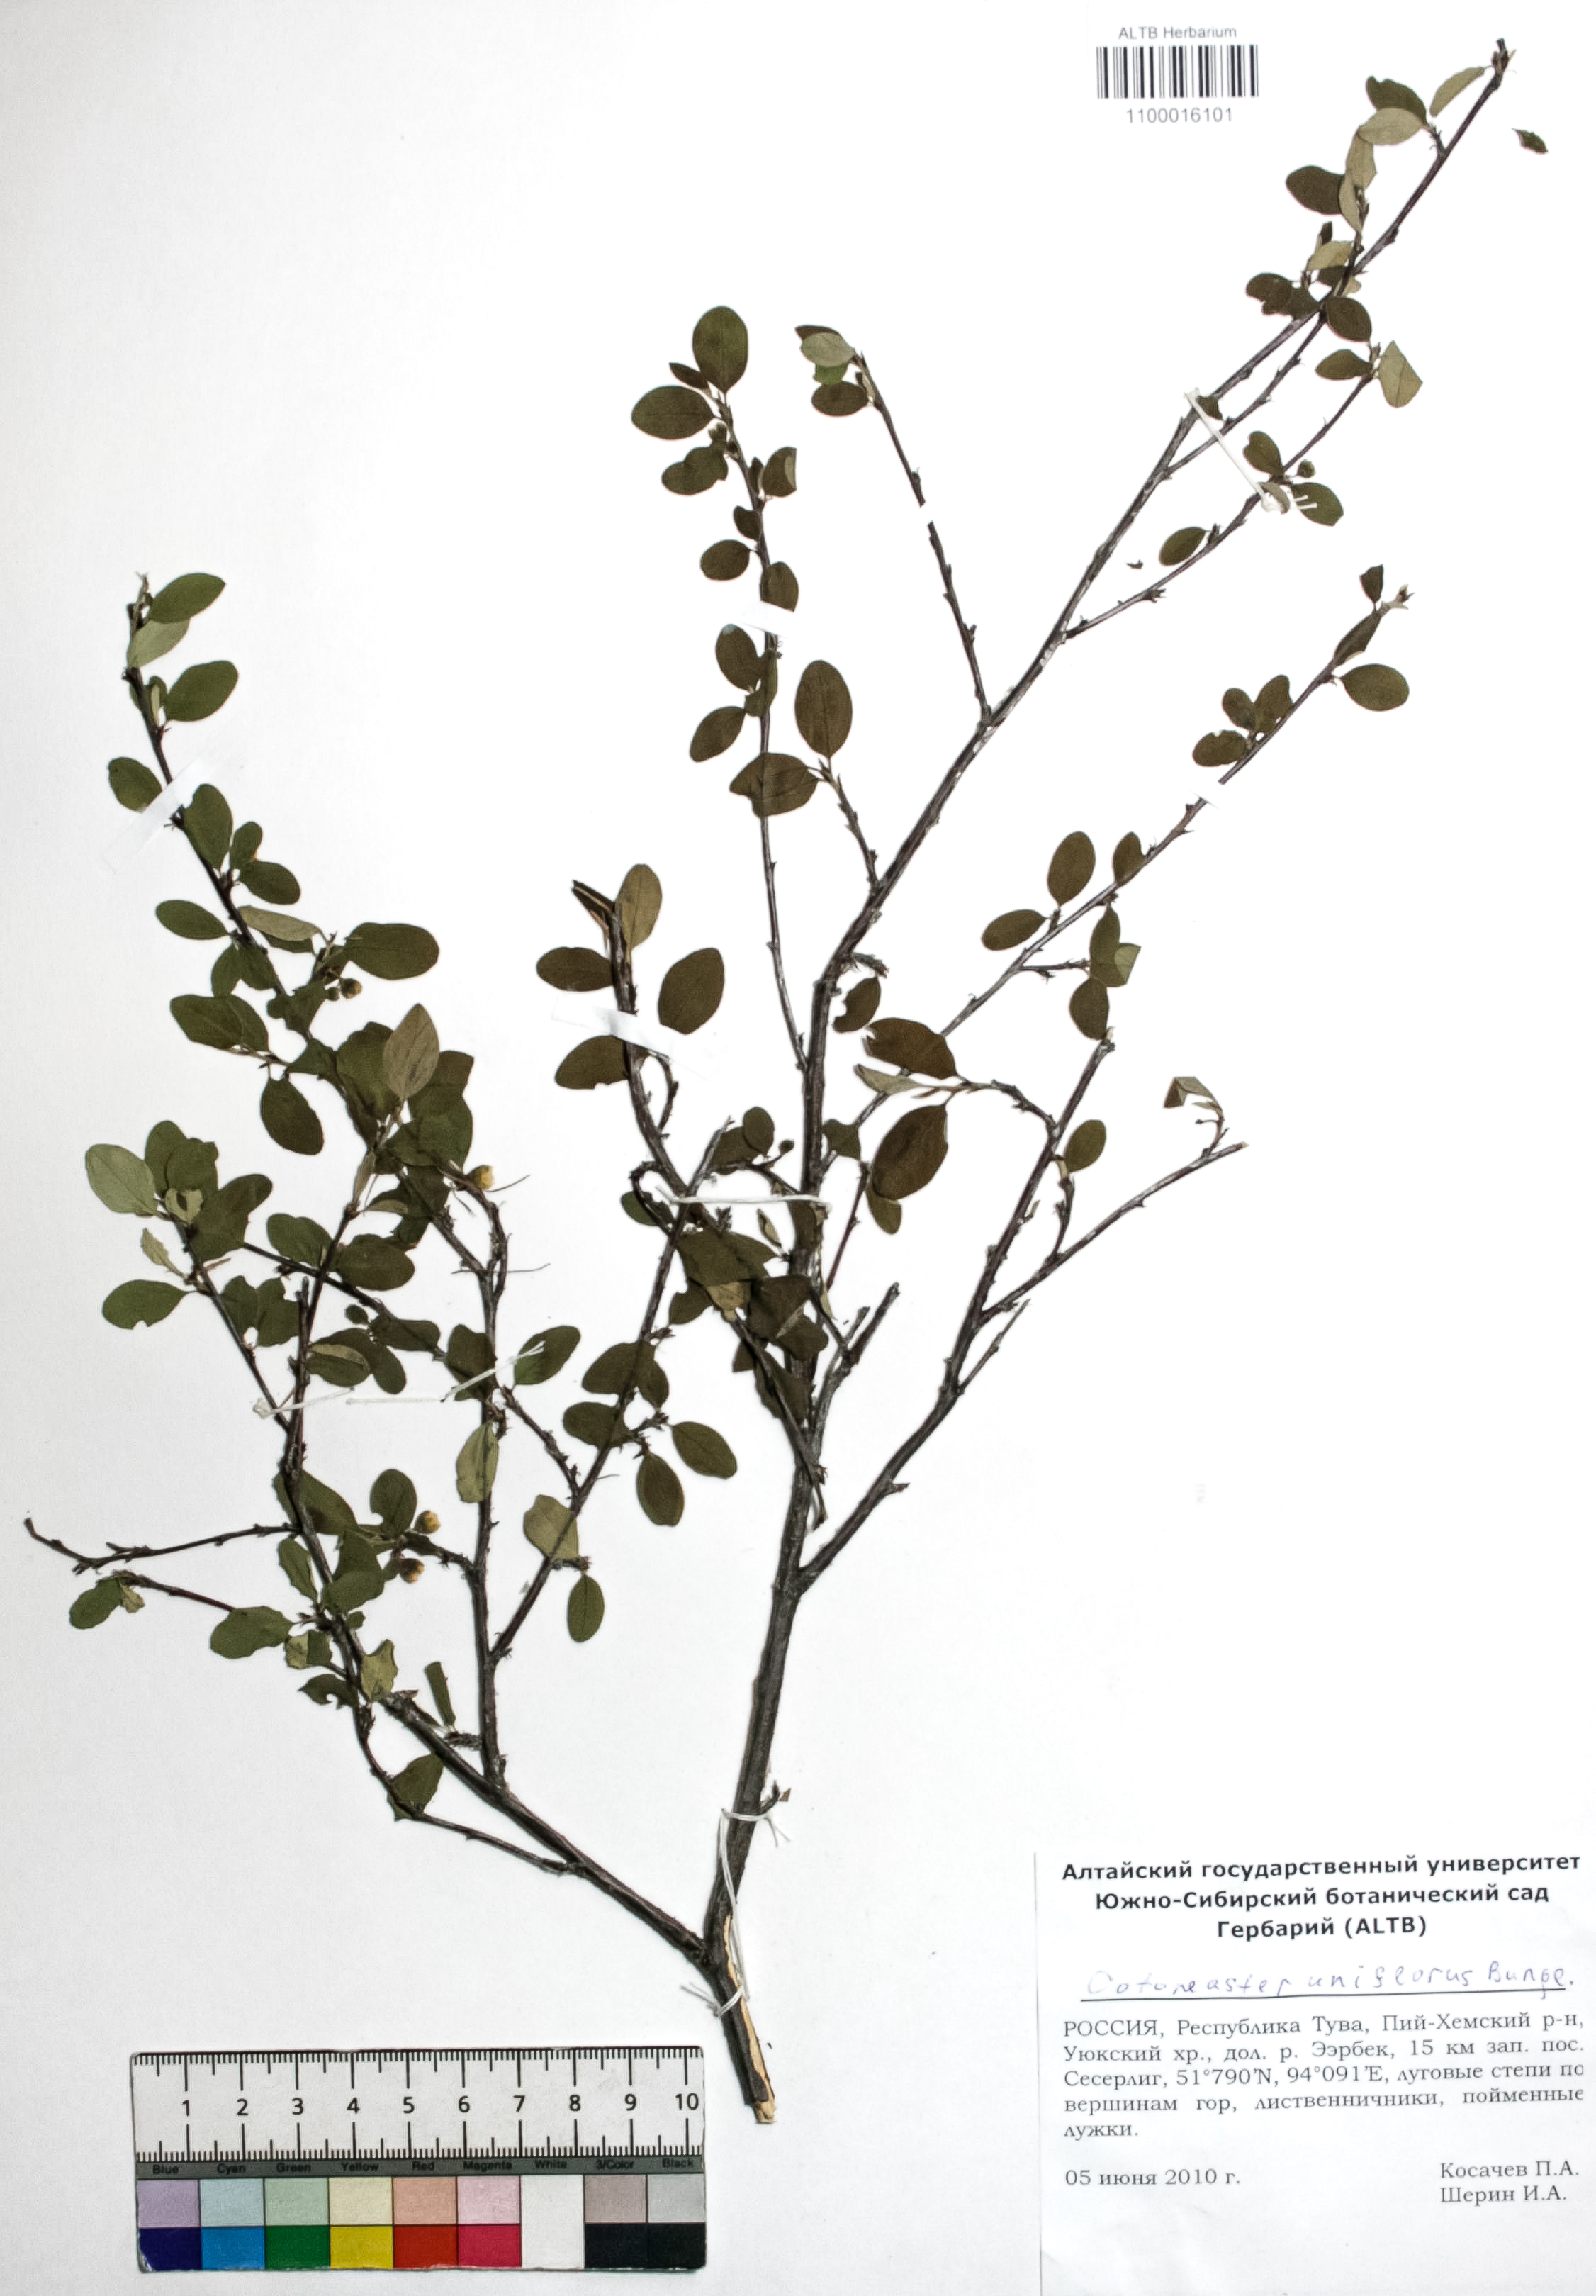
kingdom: Plantae
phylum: Tracheophyta
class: Magnoliopsida
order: Rosales
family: Rosaceae
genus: Cotoneaster
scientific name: Cotoneaster uniflorus
